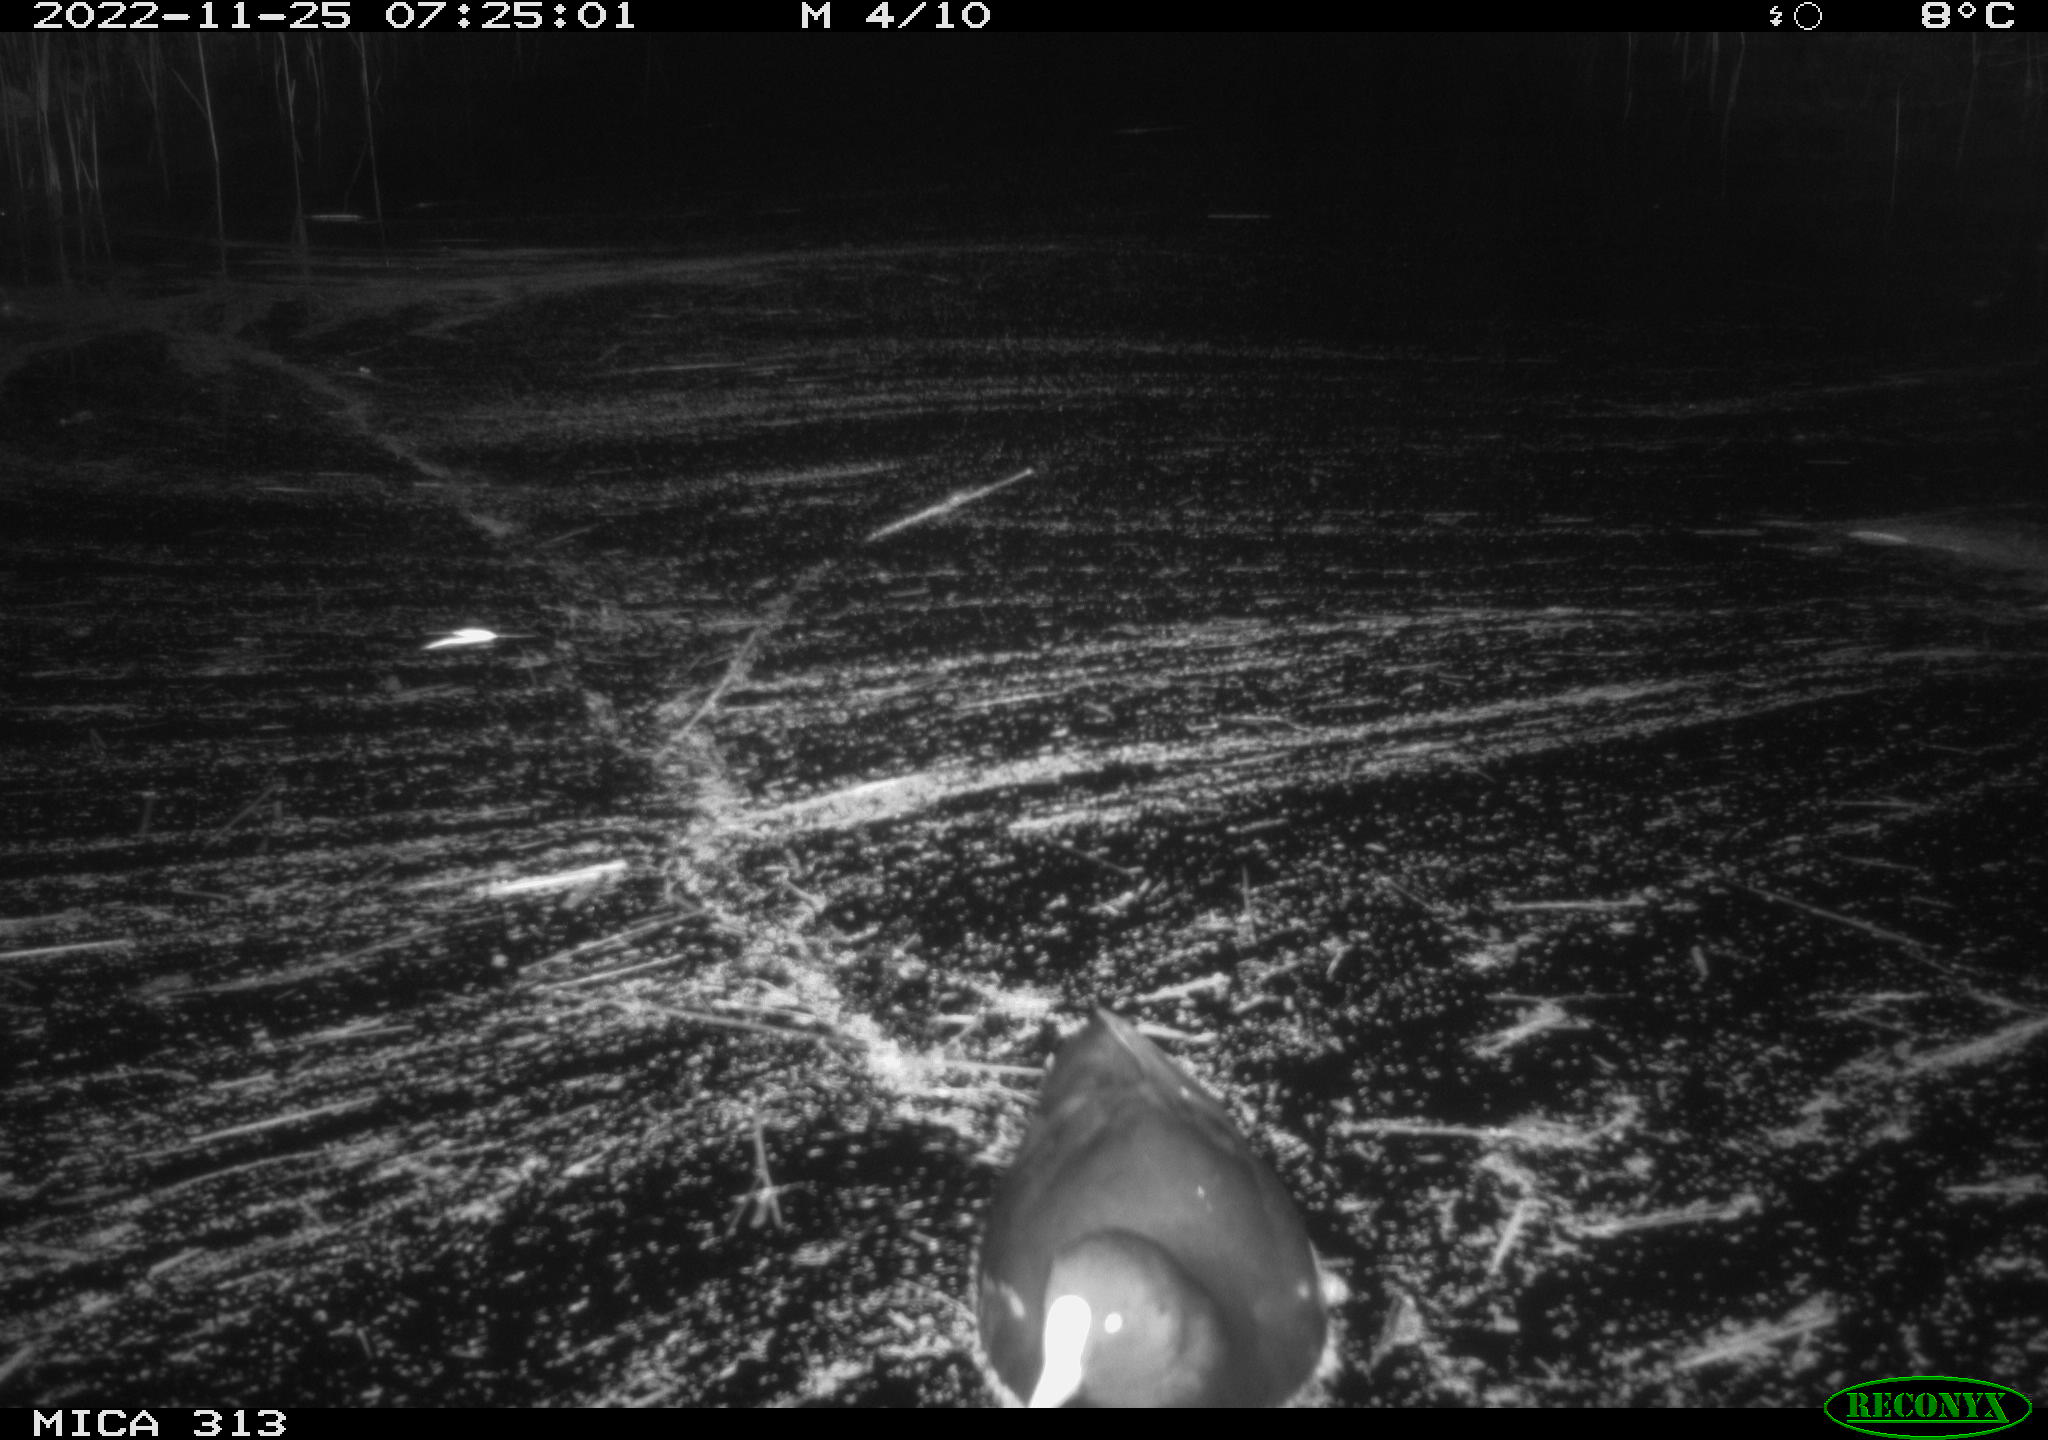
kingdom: Animalia
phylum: Chordata
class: Aves
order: Gruiformes
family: Rallidae
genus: Fulica
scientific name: Fulica atra
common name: Eurasian coot
